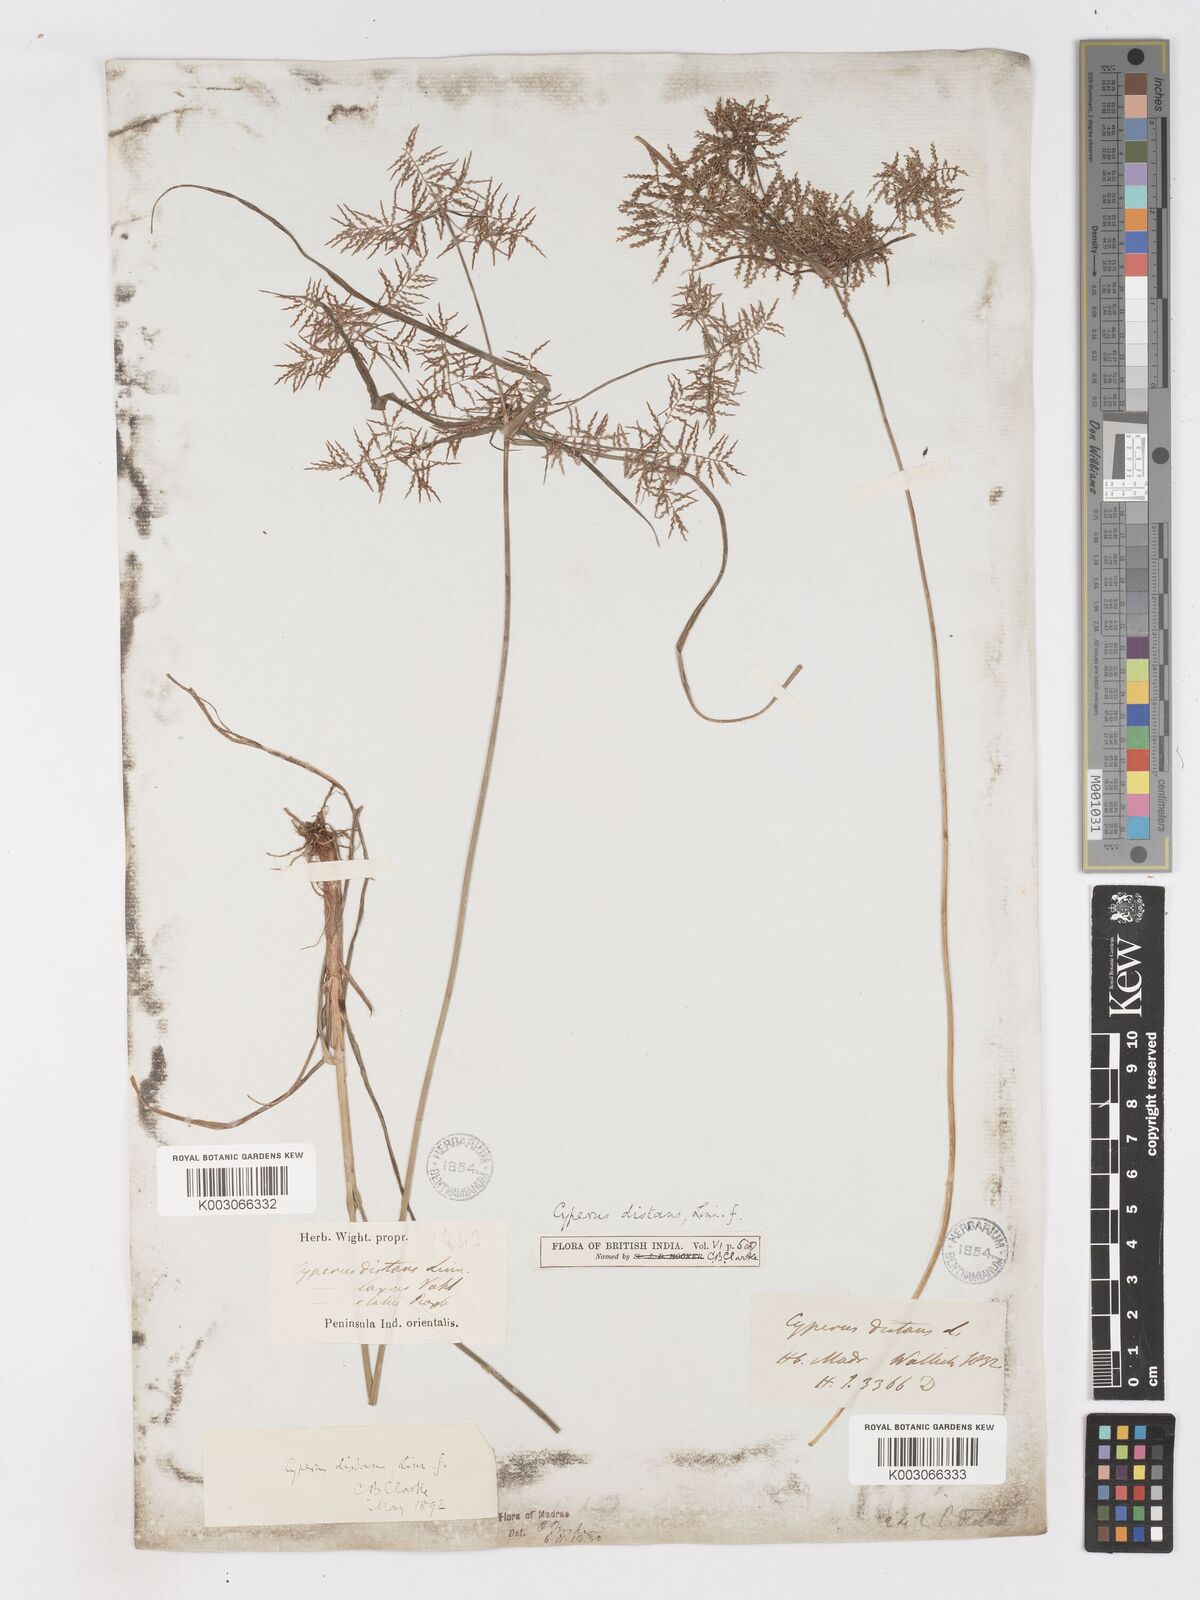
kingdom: Plantae
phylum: Tracheophyta
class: Liliopsida
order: Poales
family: Cyperaceae
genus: Cyperus
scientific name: Cyperus distans
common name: Slender cyperus
